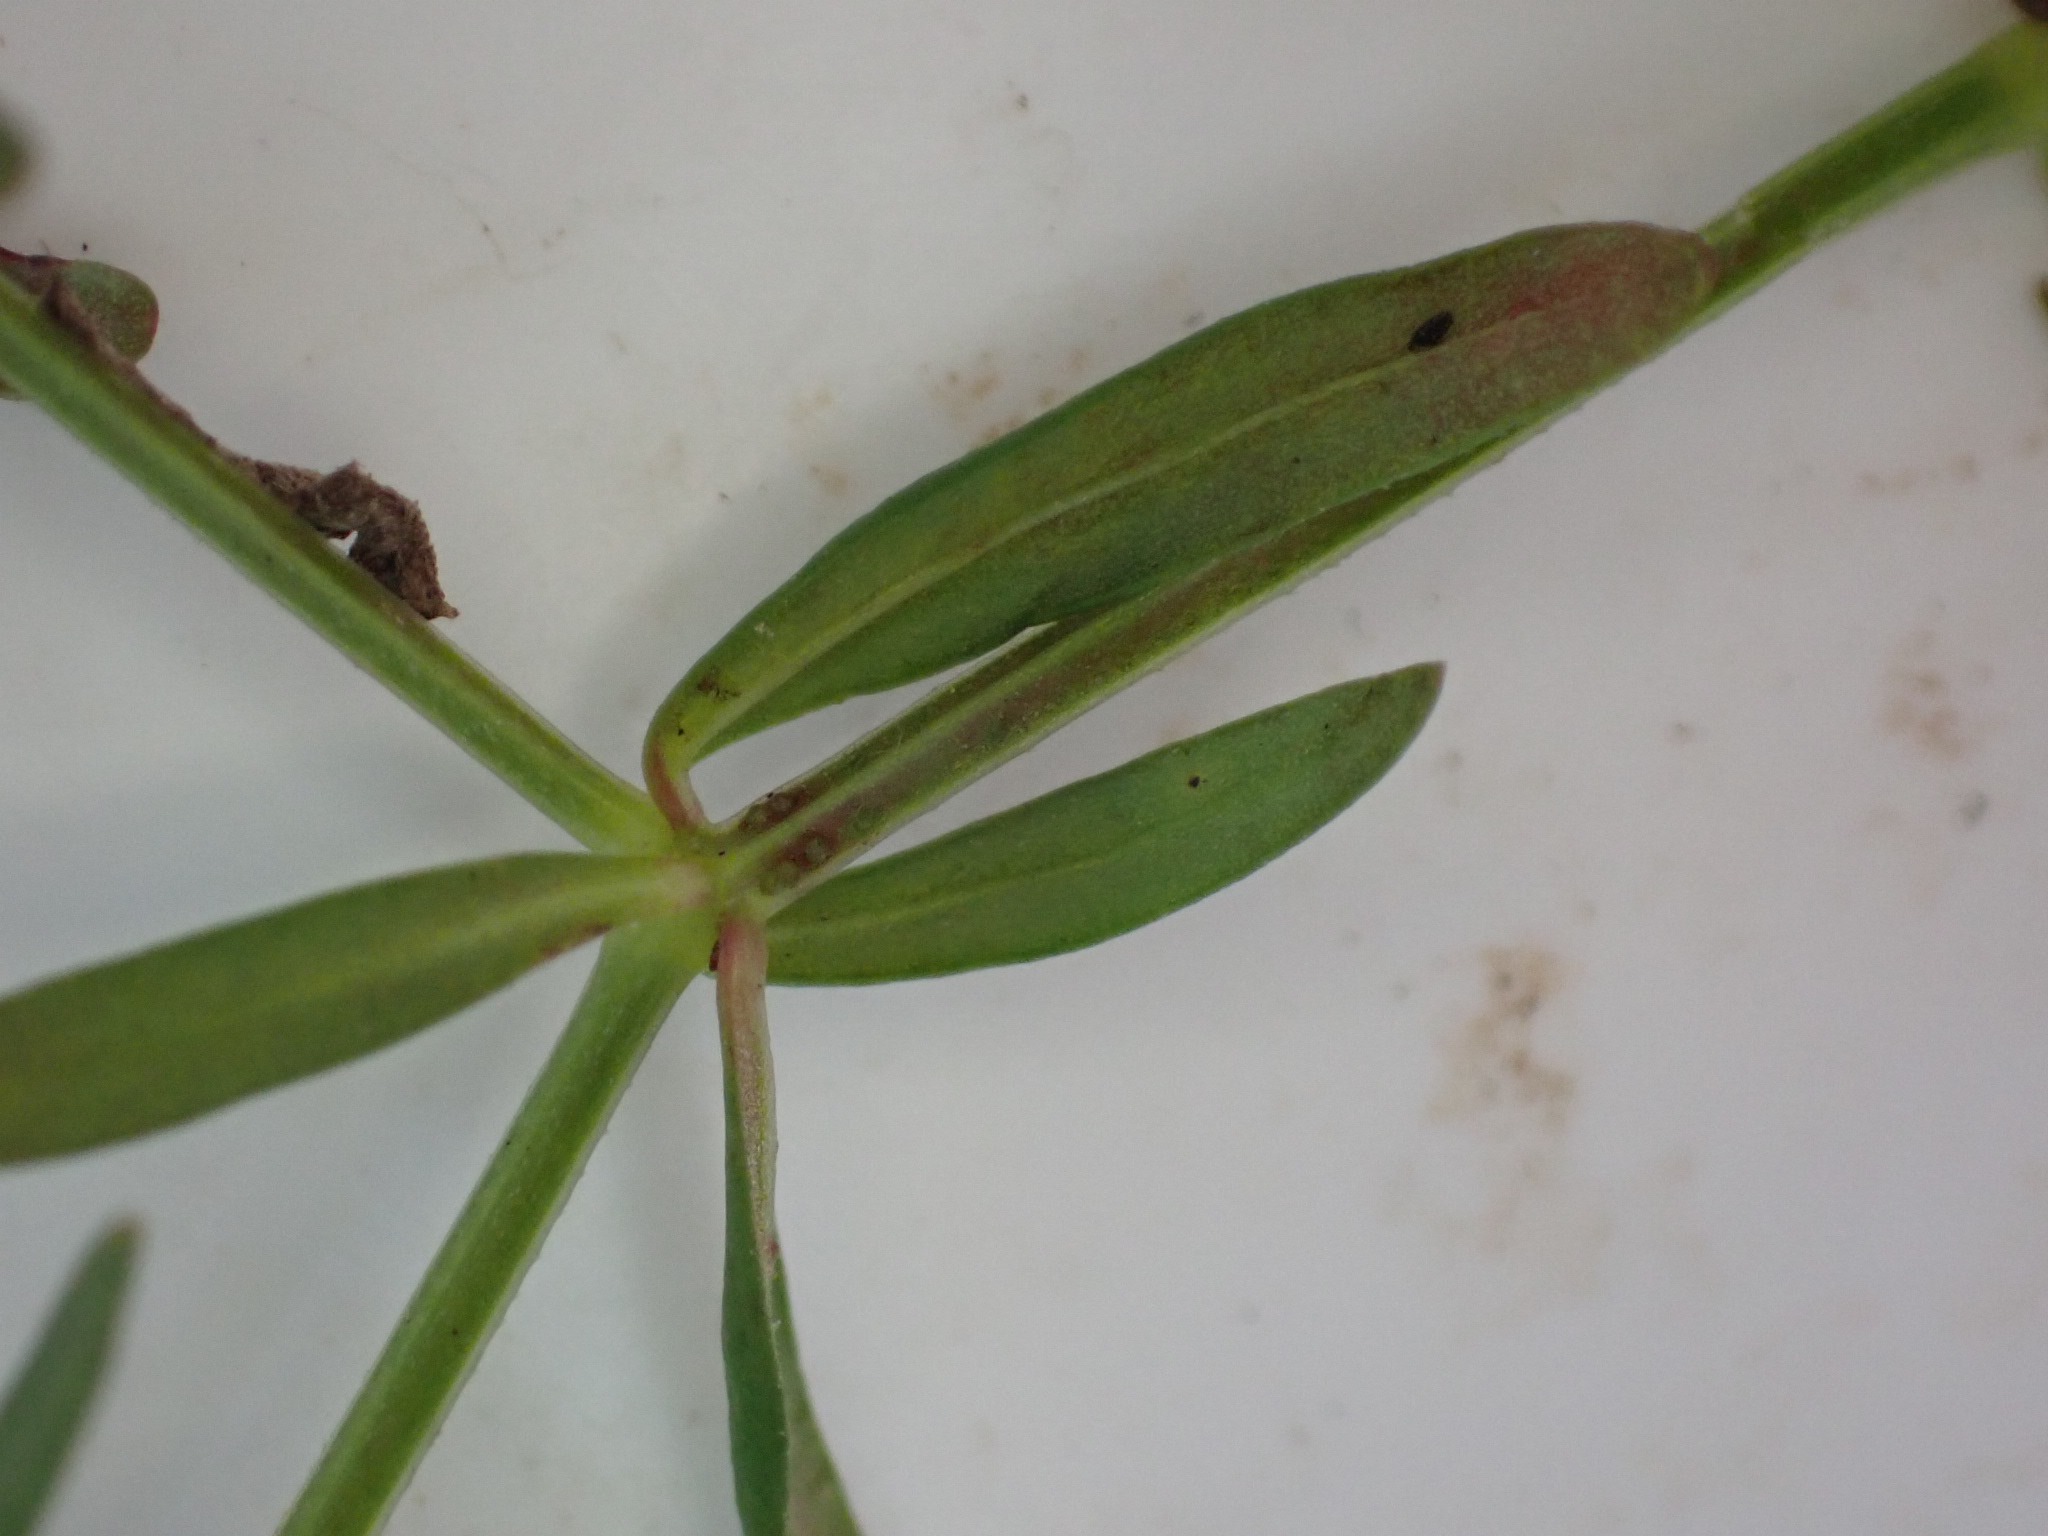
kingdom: Plantae
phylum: Tracheophyta
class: Magnoliopsida
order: Gentianales
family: Rubiaceae
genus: Galium
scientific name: Galium palustre
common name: Kær-snerre
